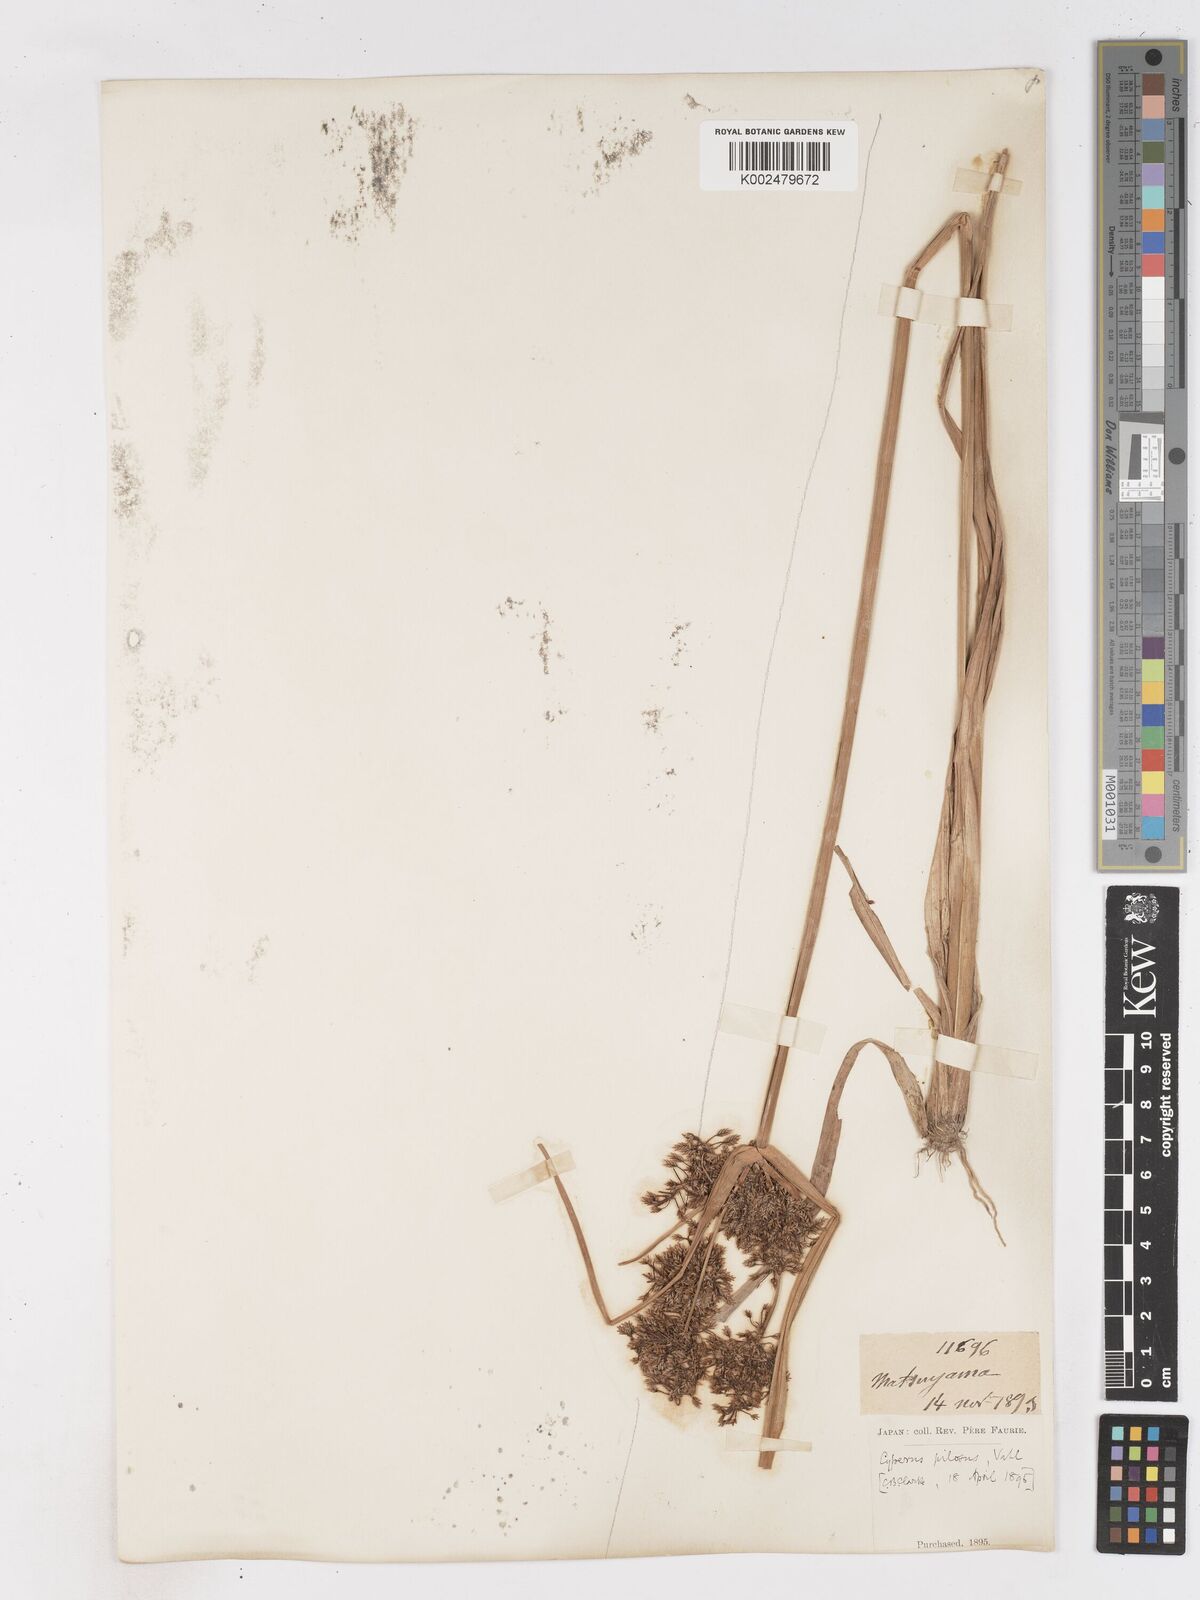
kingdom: Plantae
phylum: Tracheophyta
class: Liliopsida
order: Poales
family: Cyperaceae
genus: Cyperus
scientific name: Cyperus pilosus
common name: Fuzzy flatsedge
